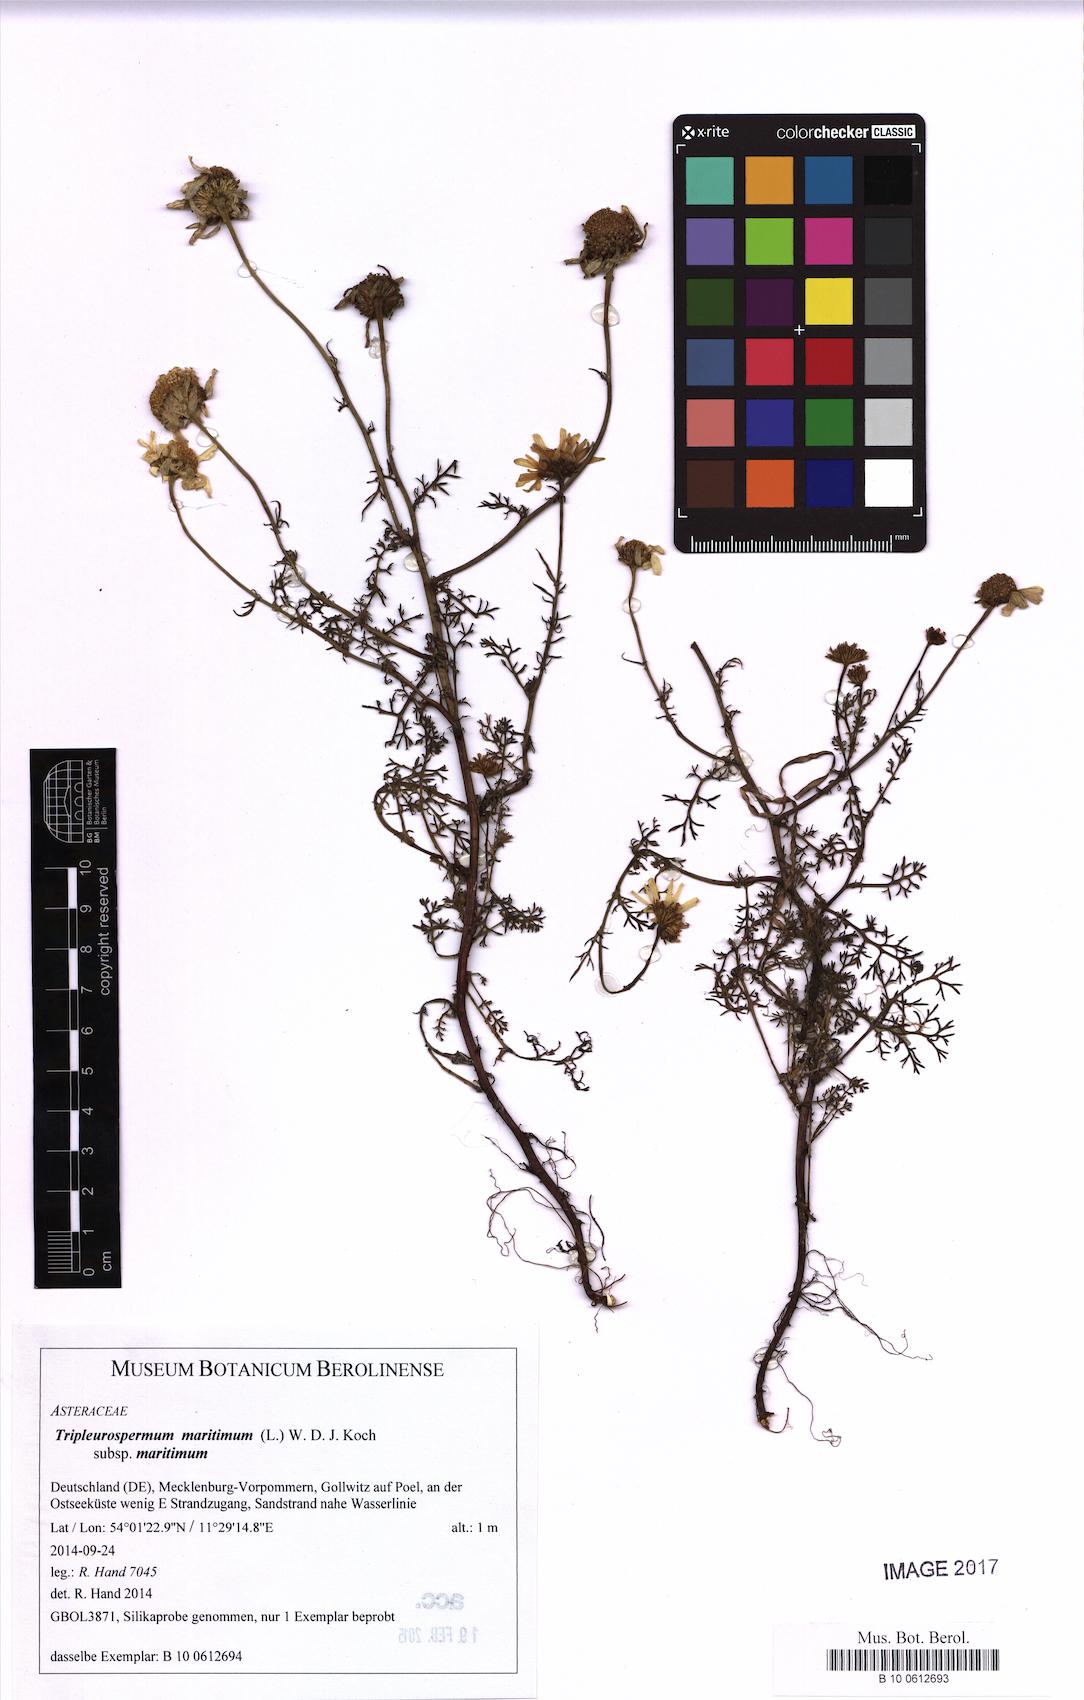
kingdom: Plantae
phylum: Tracheophyta
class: Magnoliopsida
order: Asterales
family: Asteraceae
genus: Tripleurospermum
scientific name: Tripleurospermum maritimum
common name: Sea mayweed
